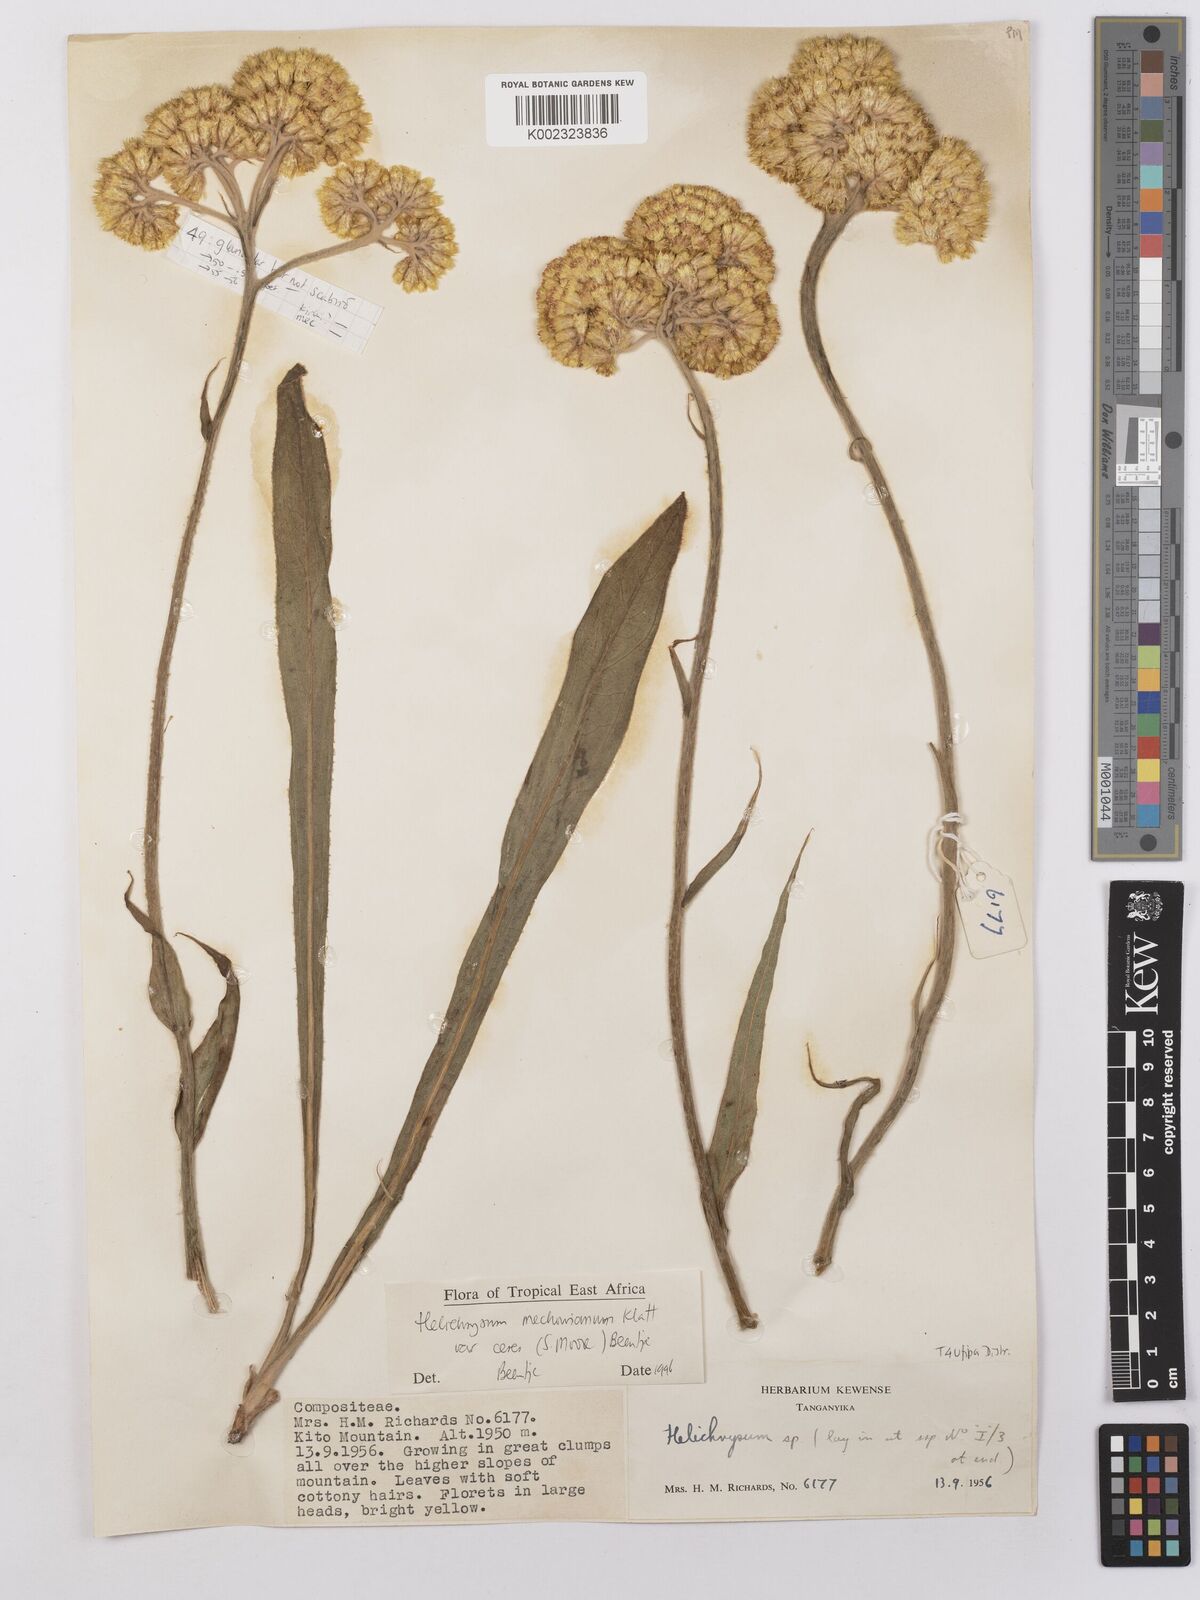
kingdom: Plantae
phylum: Tracheophyta
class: Magnoliopsida
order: Asterales
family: Asteraceae
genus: Helichrysum
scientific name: Helichrysum mechowianum
